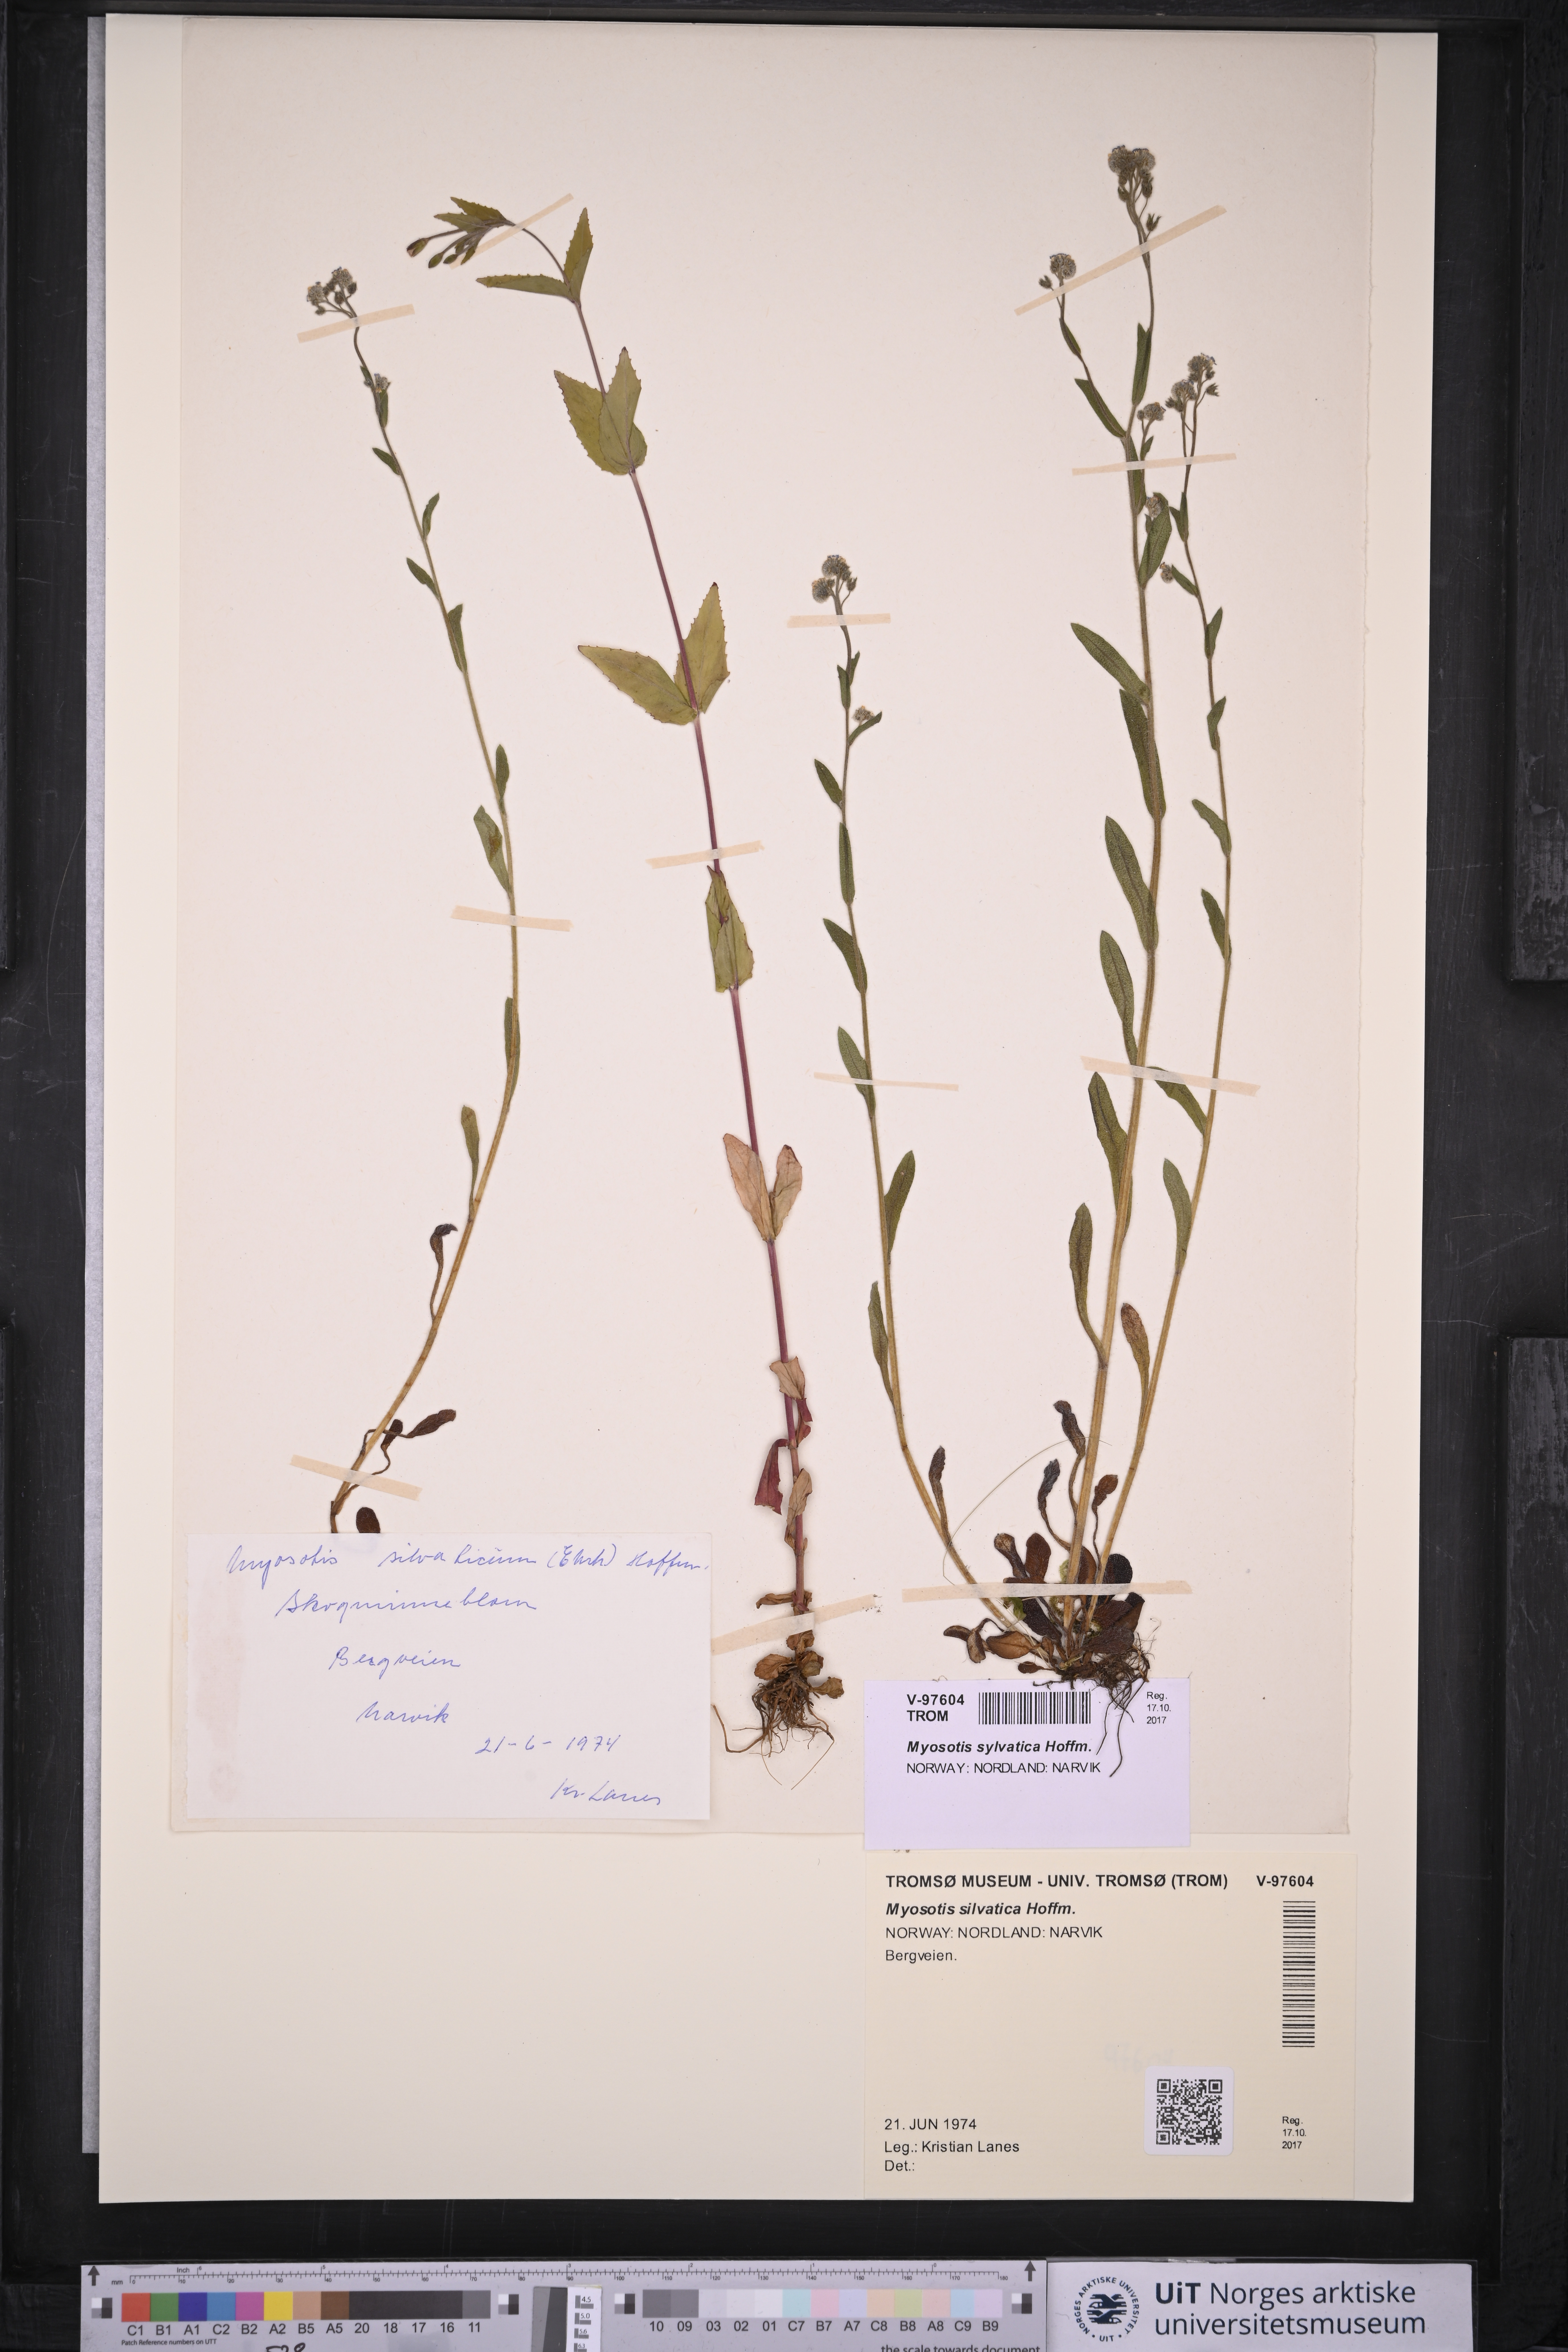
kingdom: Plantae
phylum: Tracheophyta
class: Magnoliopsida
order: Boraginales
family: Boraginaceae
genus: Myosotis
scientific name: Myosotis sylvatica
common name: Wood forget-me-not
